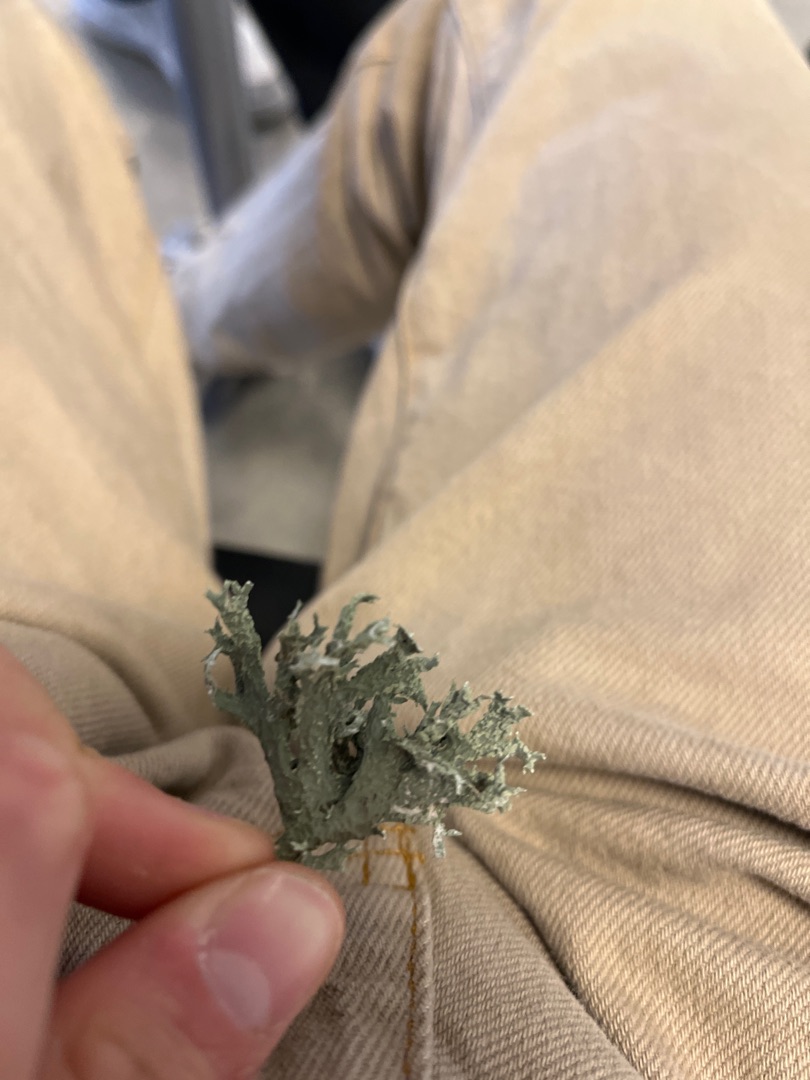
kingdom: Fungi
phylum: Ascomycota
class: Lecanoromycetes
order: Lecanorales
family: Parmeliaceae
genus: Evernia
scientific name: Evernia prunastri
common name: Almindelig slåenlav
